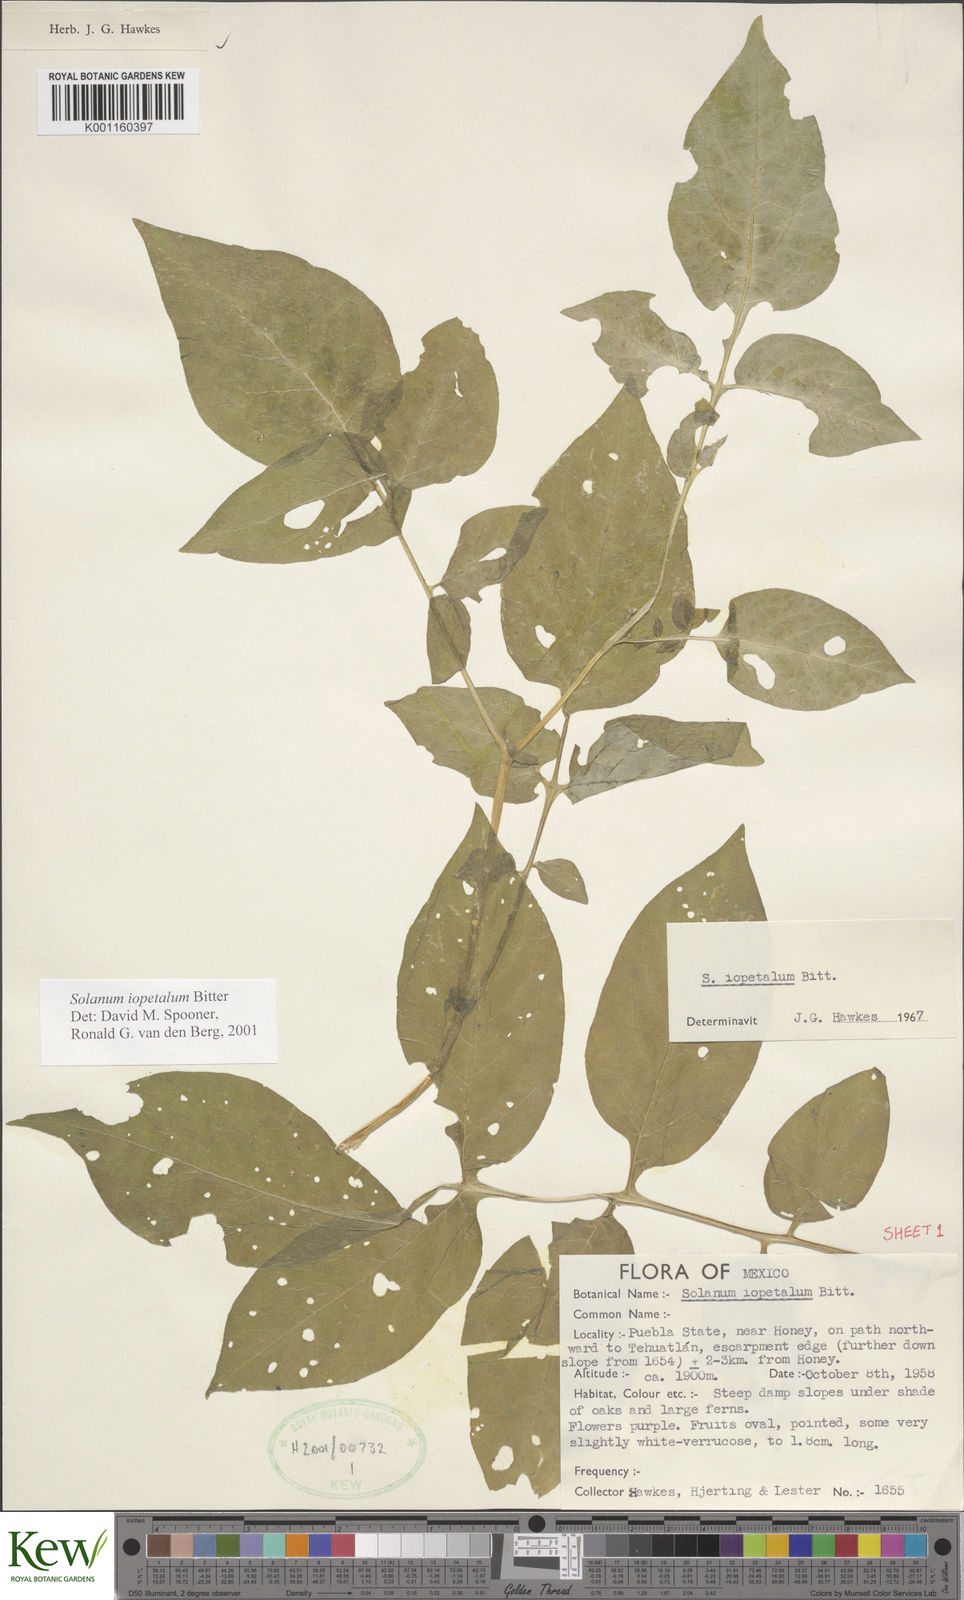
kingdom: Plantae
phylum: Tracheophyta
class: Magnoliopsida
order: Solanales
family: Solanaceae
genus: Solanum
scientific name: Solanum iopetalum
